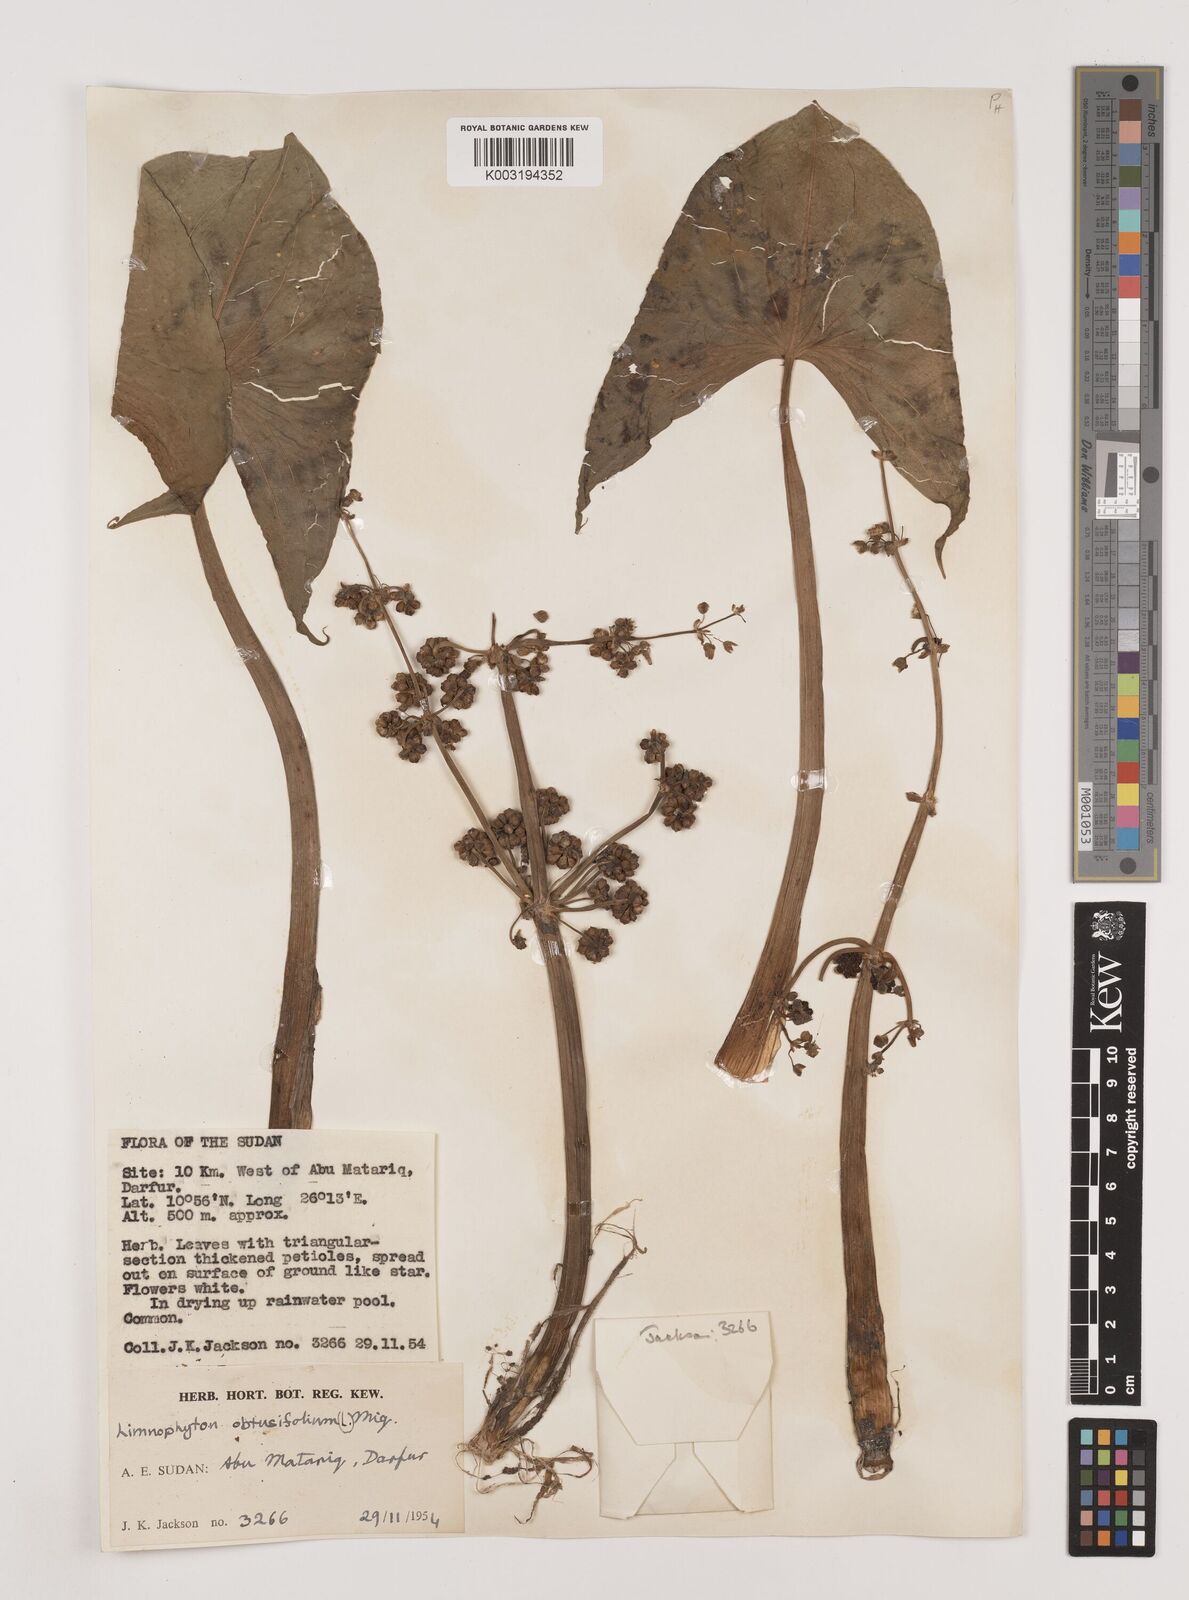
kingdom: Plantae
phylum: Tracheophyta
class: Liliopsida
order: Alismatales
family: Alismataceae
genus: Limnophyton
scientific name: Limnophyton obtusifolium
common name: Arrow head
